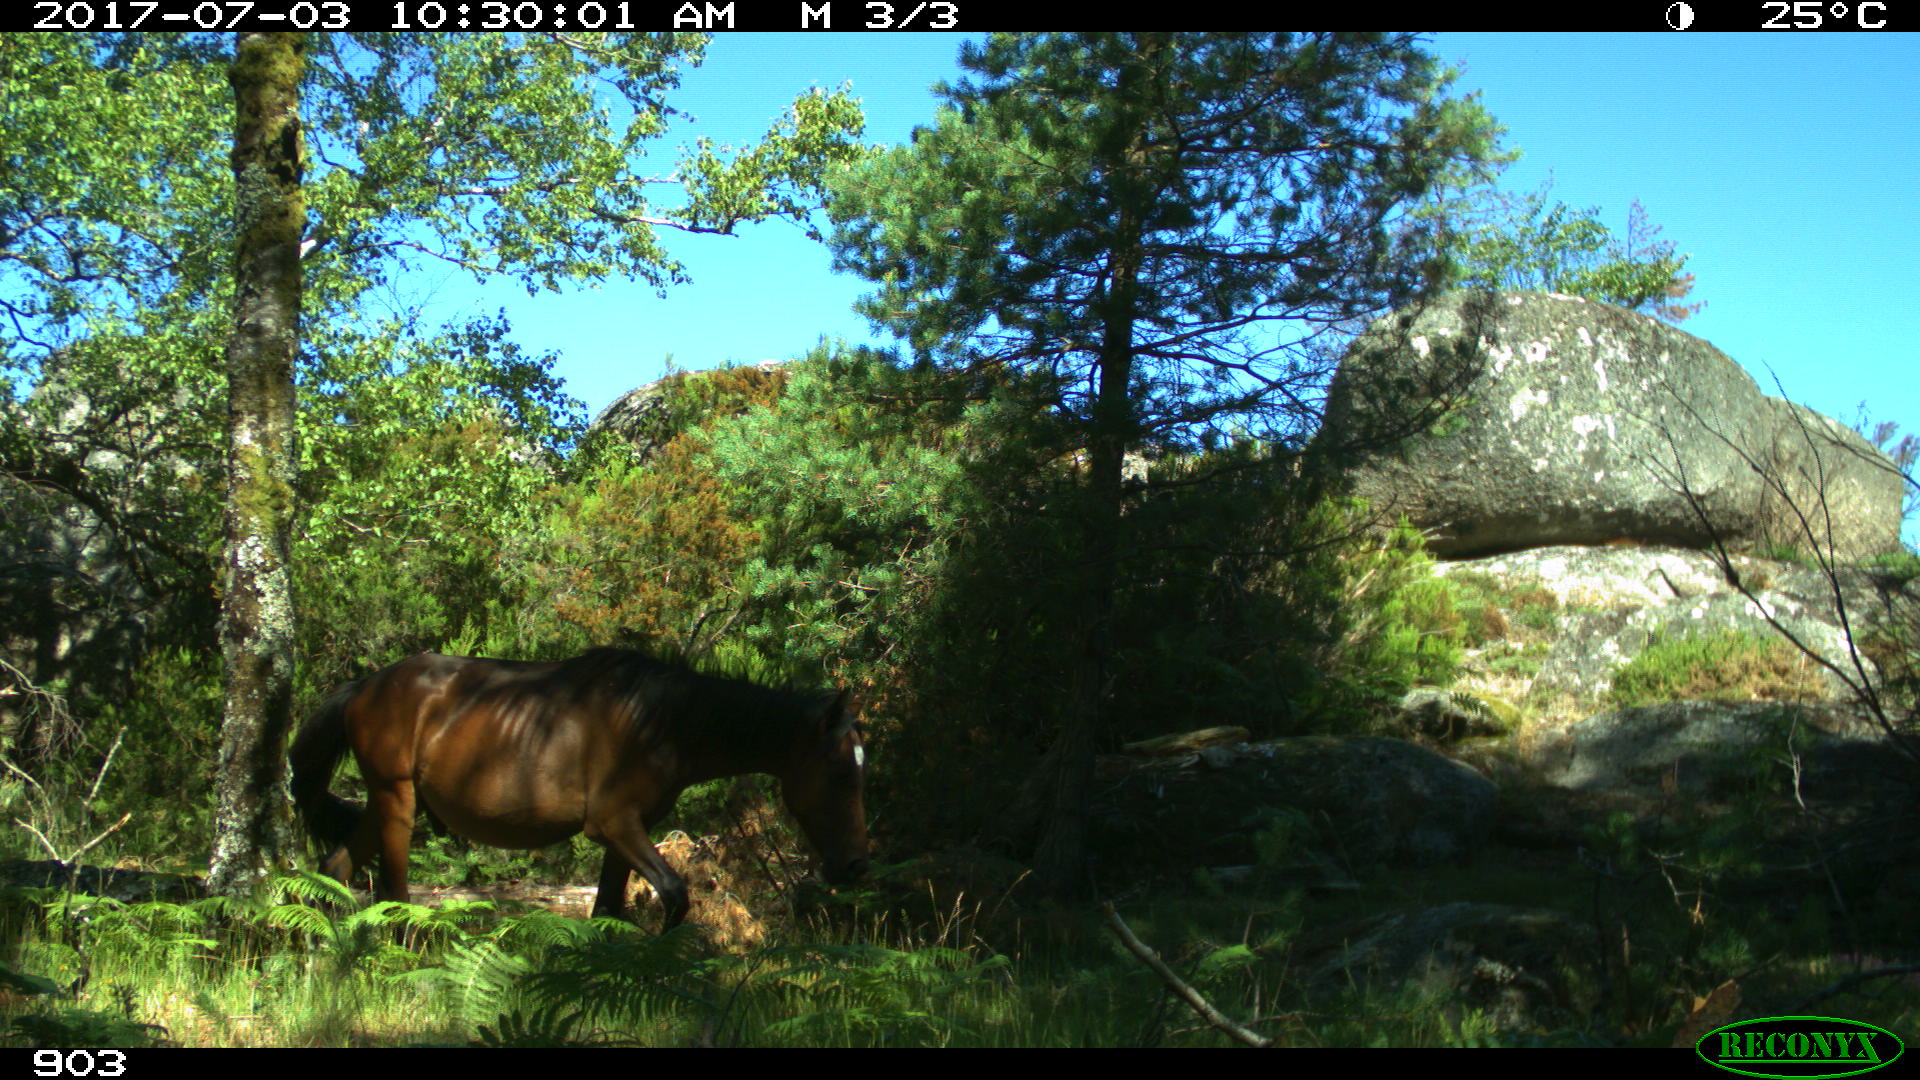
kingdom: Animalia
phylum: Chordata
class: Mammalia
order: Perissodactyla
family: Equidae
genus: Equus
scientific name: Equus caballus
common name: Horse
